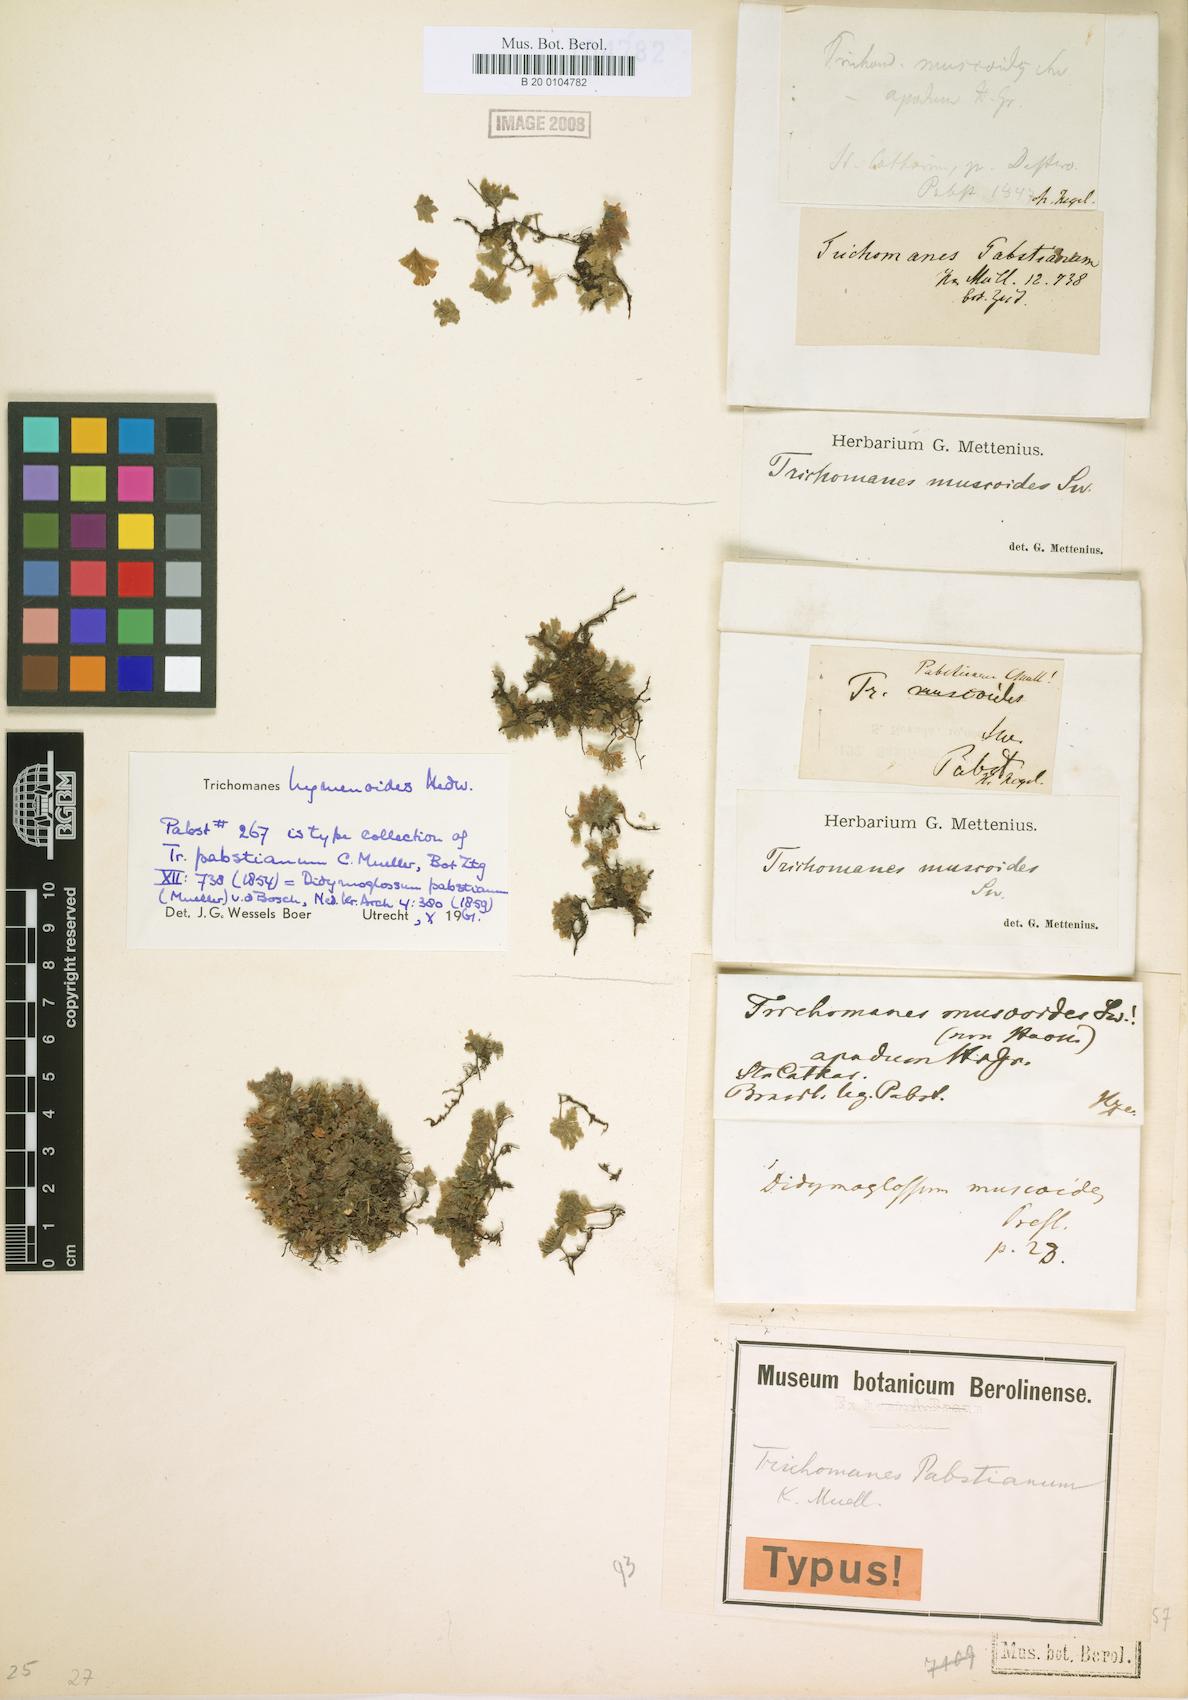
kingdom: Plantae
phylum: Tracheophyta
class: Polypodiopsida
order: Hymenophyllales
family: Hymenophyllaceae
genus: Didymoglossum
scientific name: Didymoglossum hymenoides
